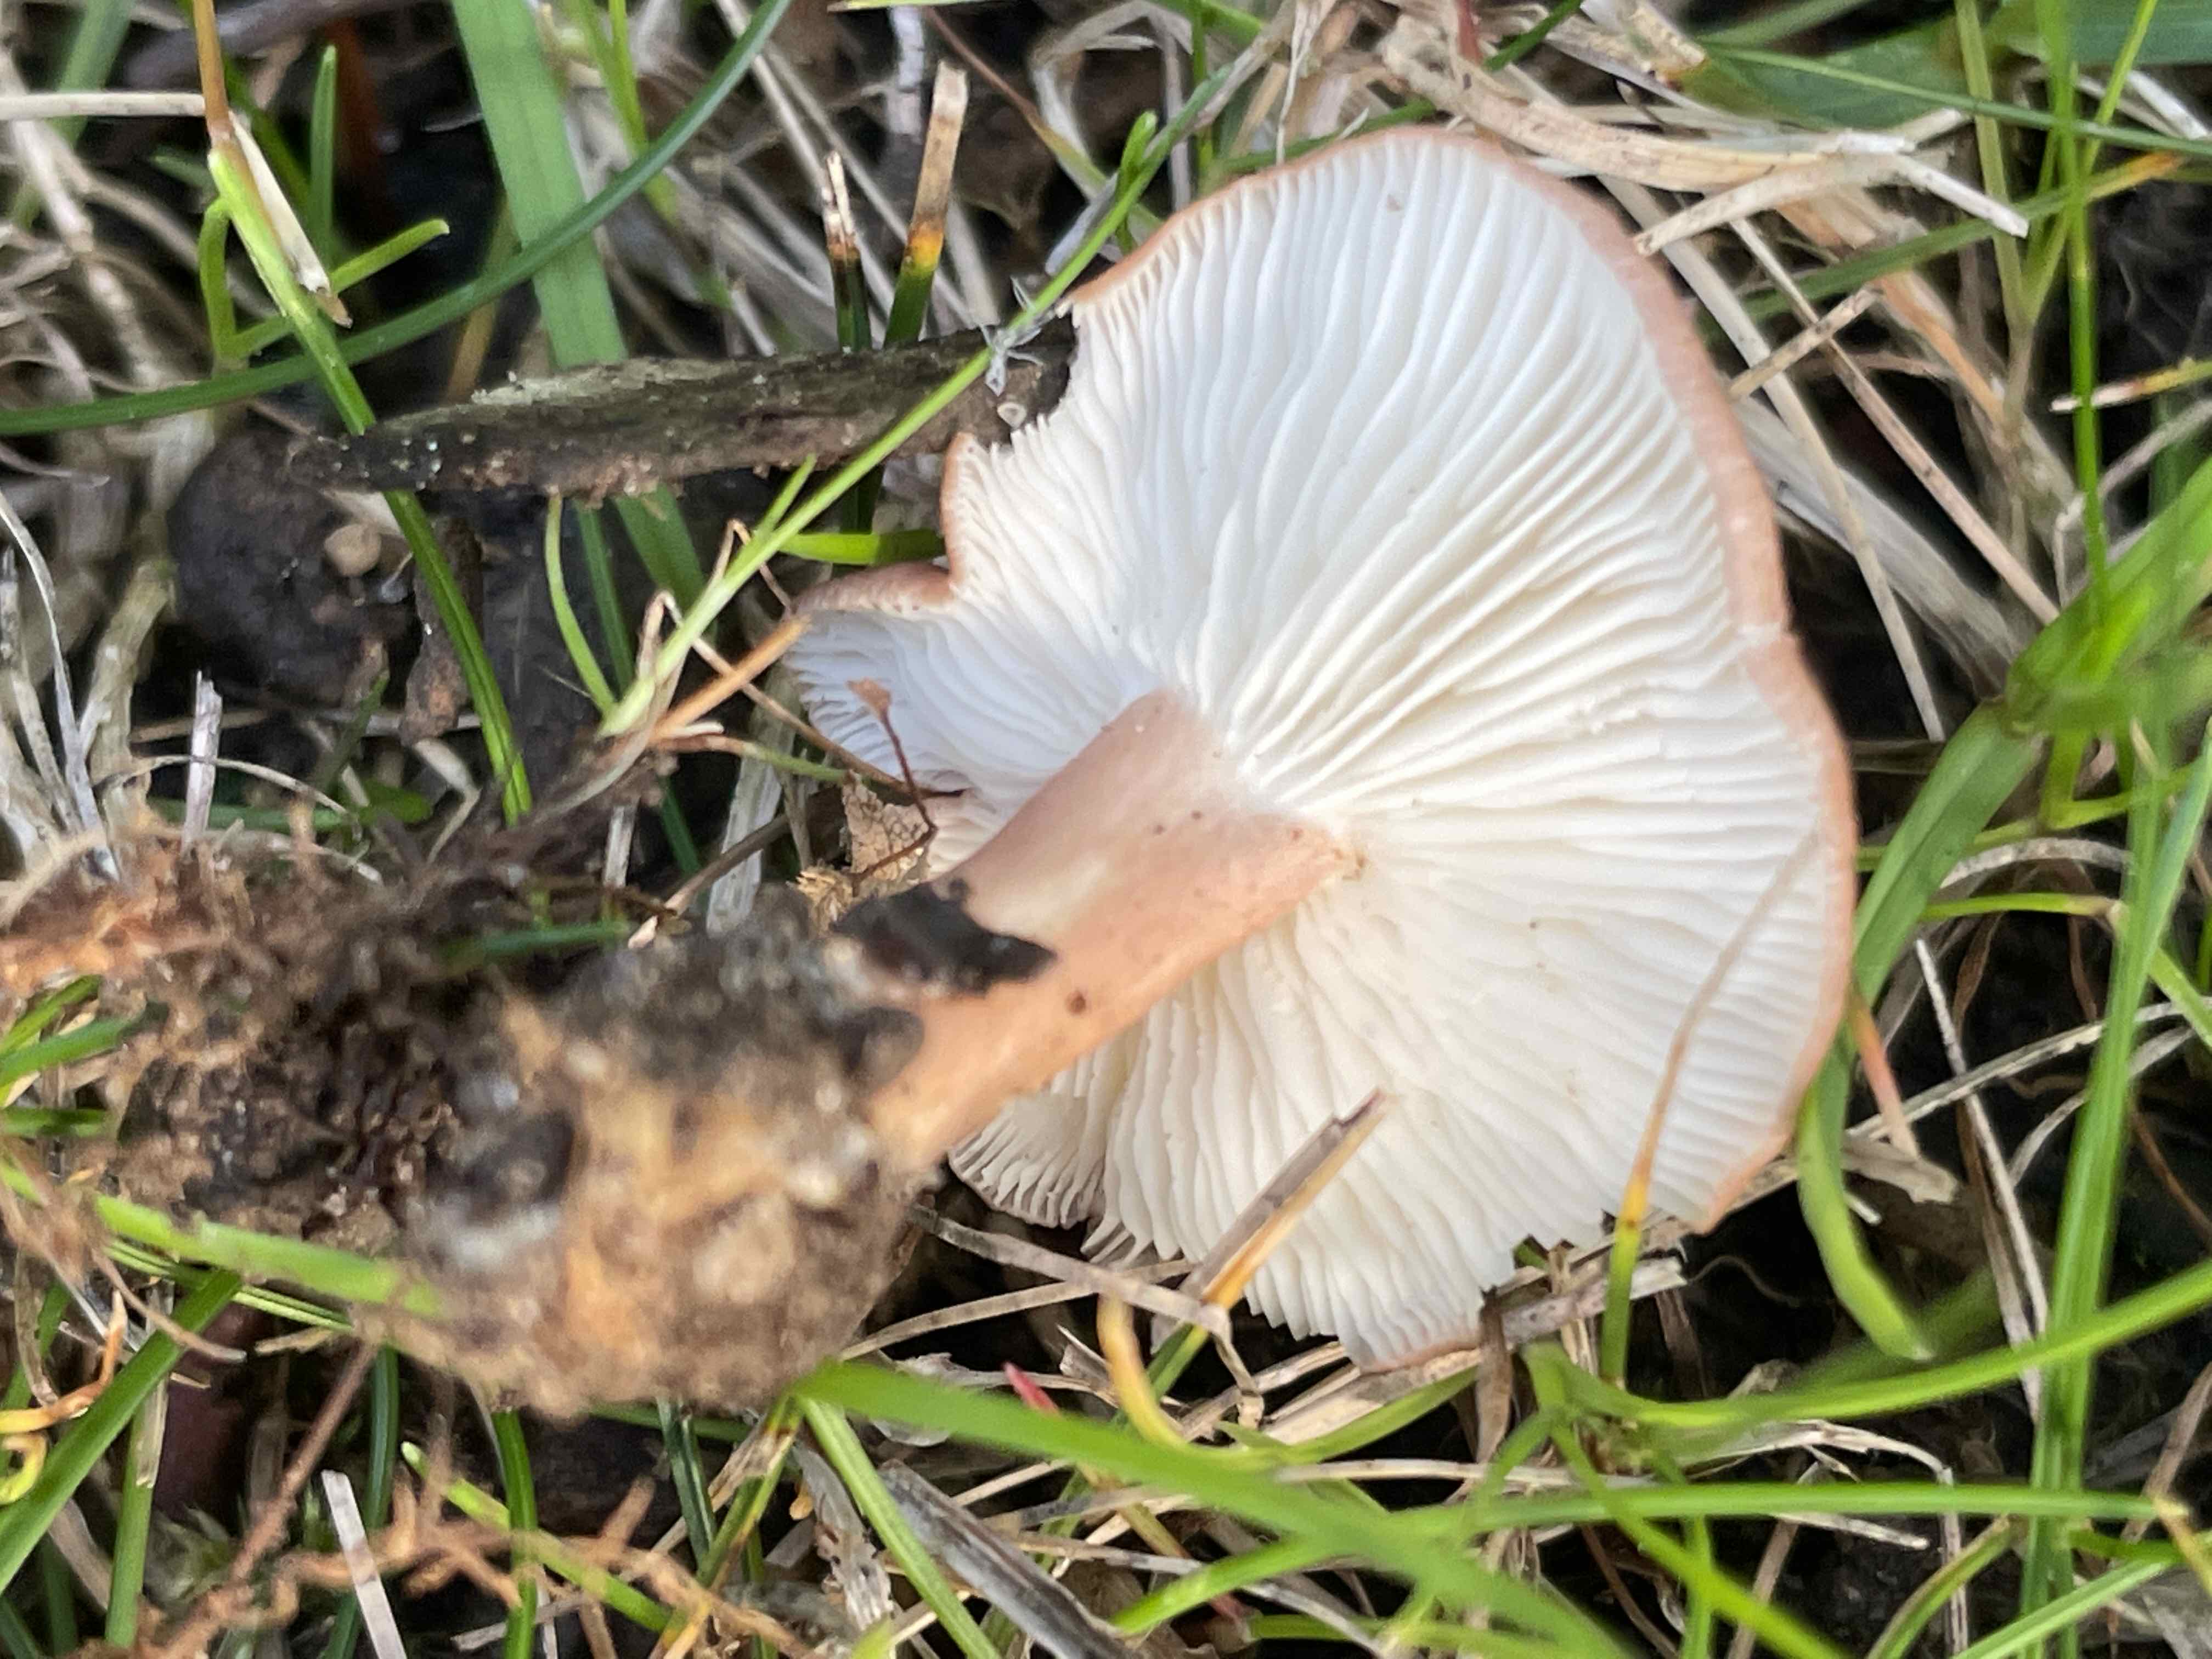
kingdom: Fungi
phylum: Basidiomycota
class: Agaricomycetes
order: Agaricales
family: Lyophyllaceae
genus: Calocybe
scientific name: Calocybe carnea
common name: rosa fagerhat
